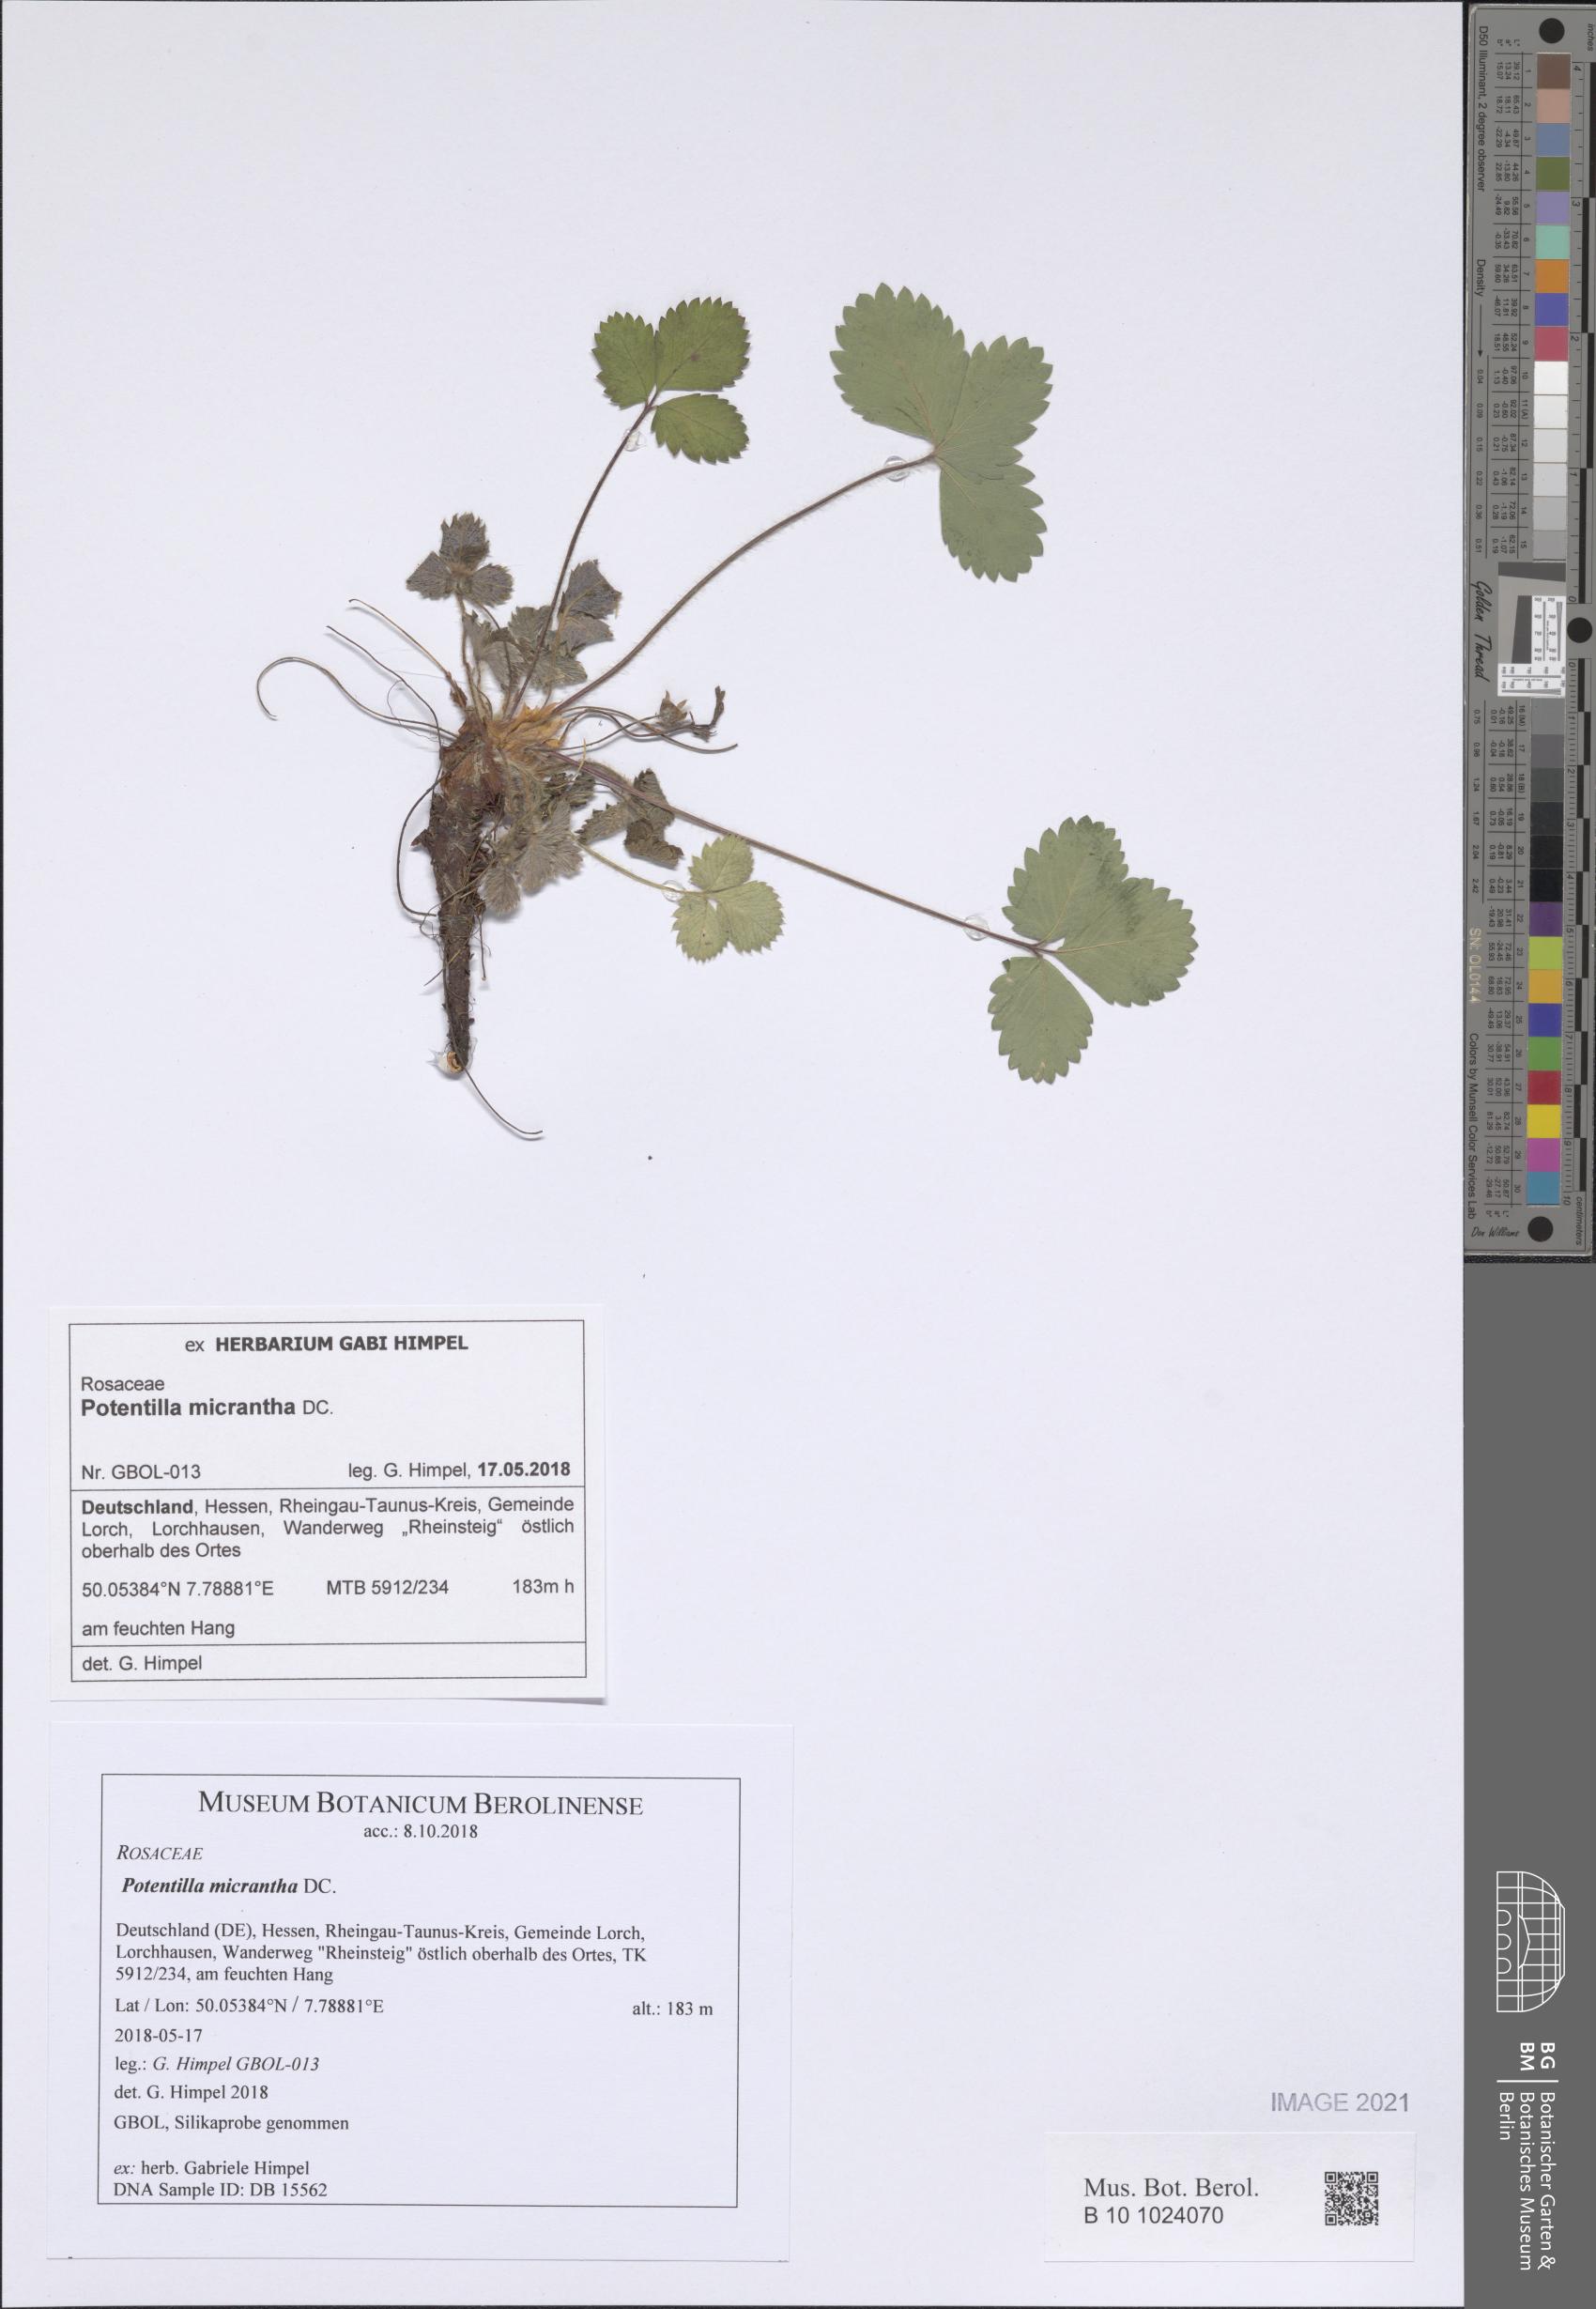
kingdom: Plantae
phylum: Tracheophyta
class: Magnoliopsida
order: Rosales
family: Rosaceae
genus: Potentilla
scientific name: Potentilla micrantha
